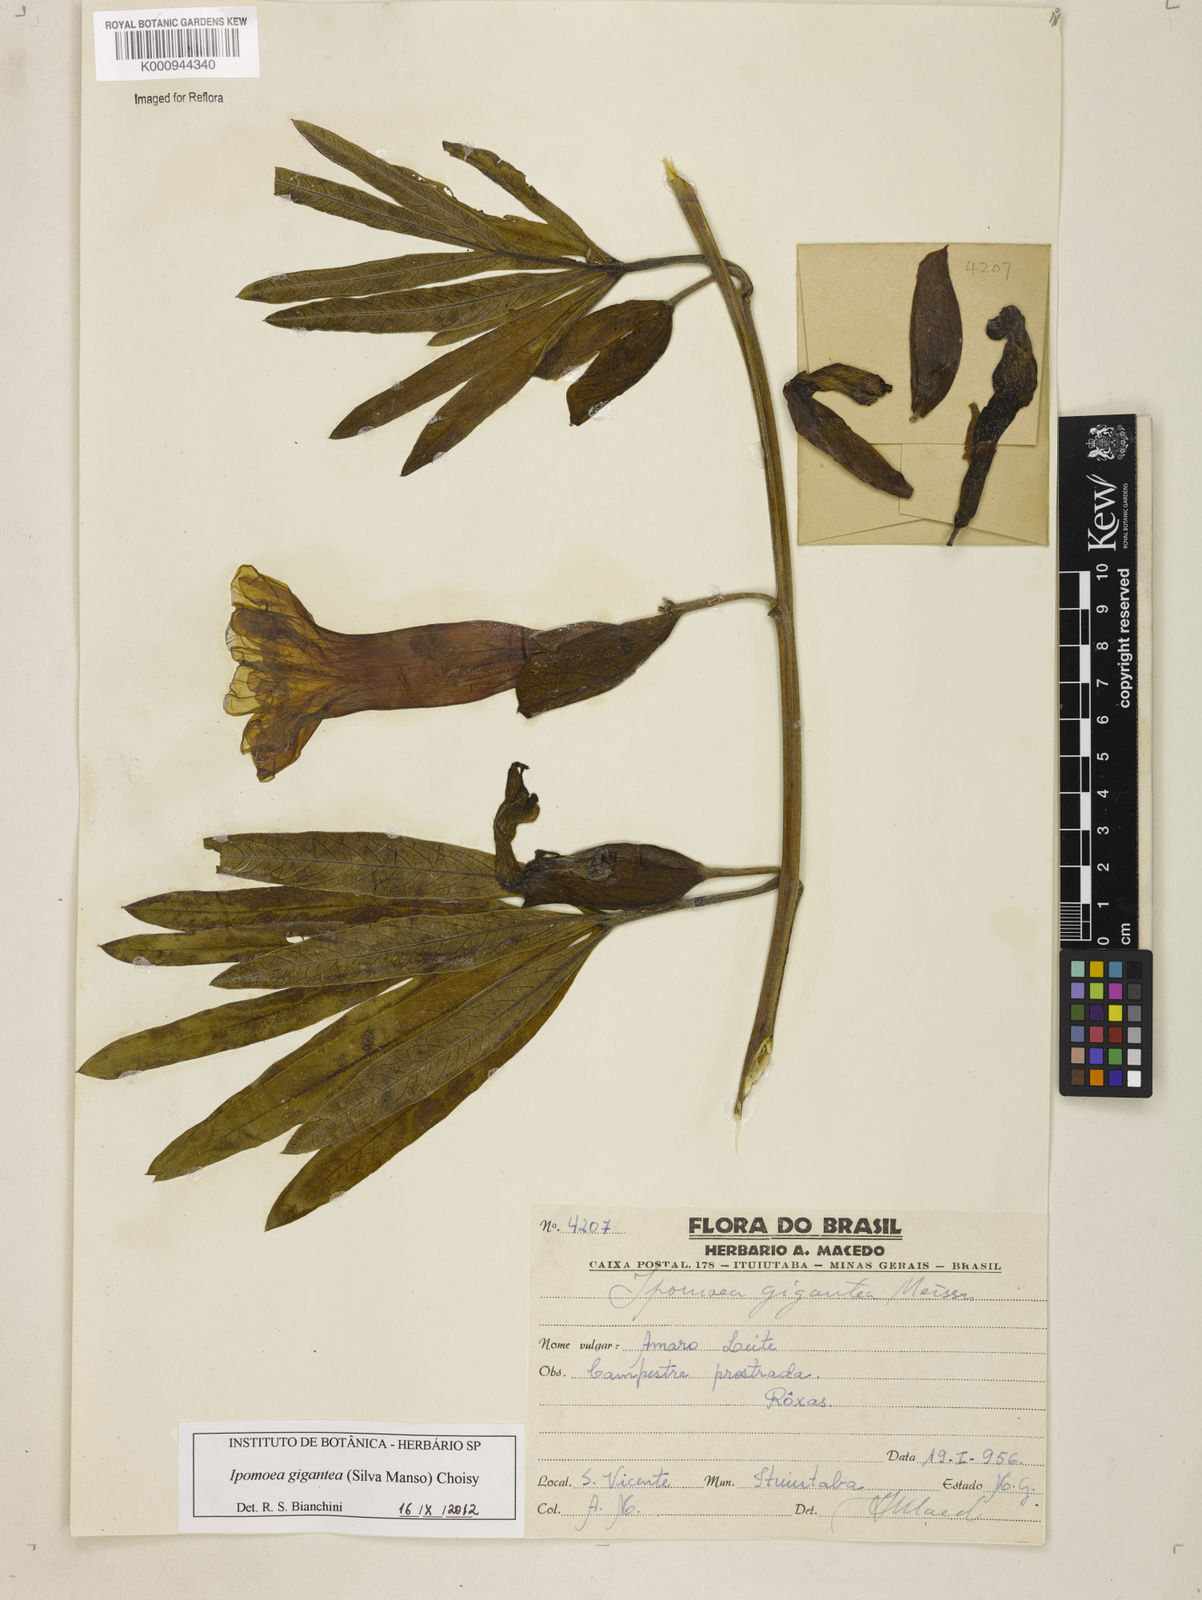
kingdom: Plantae
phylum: Tracheophyta
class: Magnoliopsida
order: Solanales
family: Convolvulaceae
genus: Ipomoea
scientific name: Ipomoea gigantea
